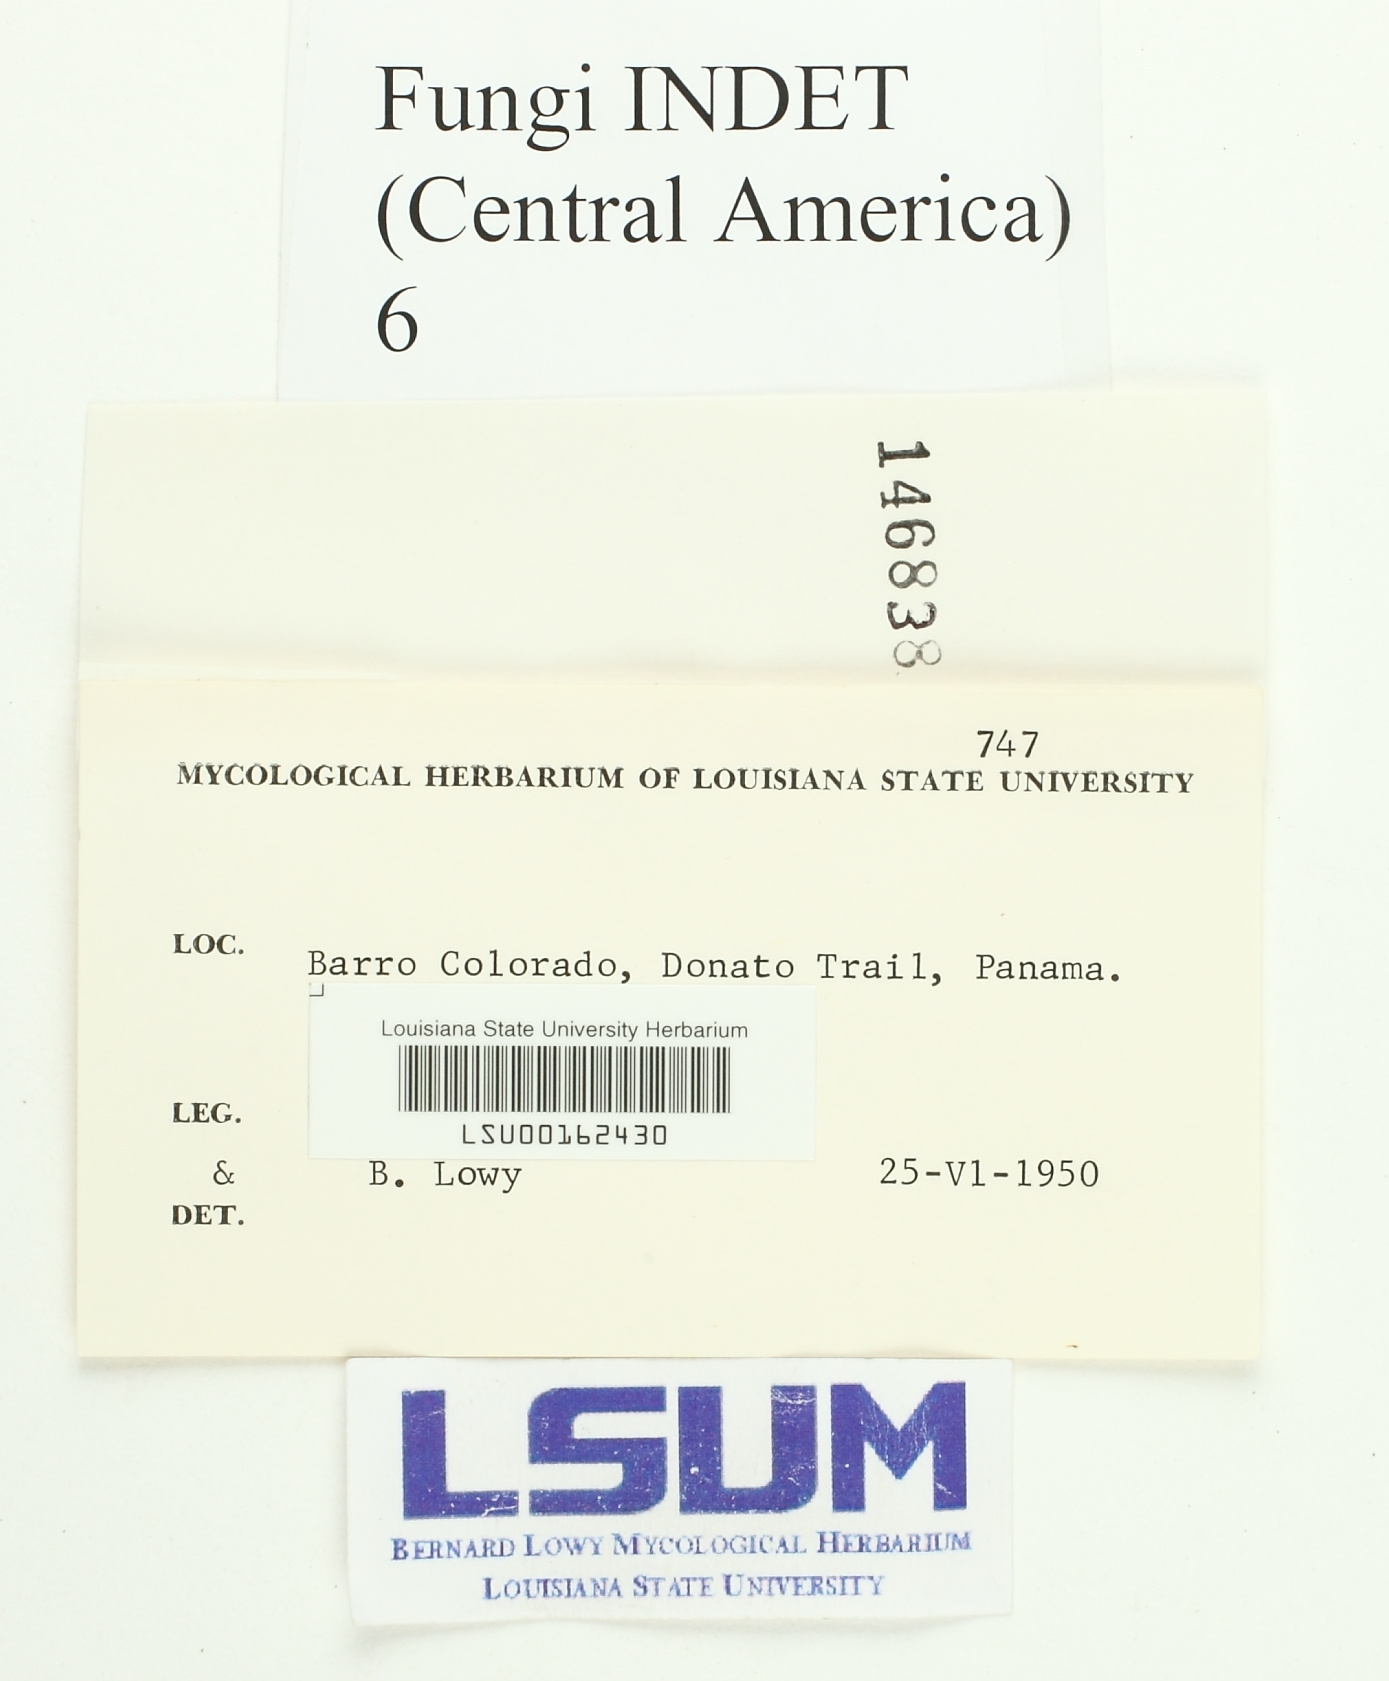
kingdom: Fungi
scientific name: Fungi
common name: Fungi
